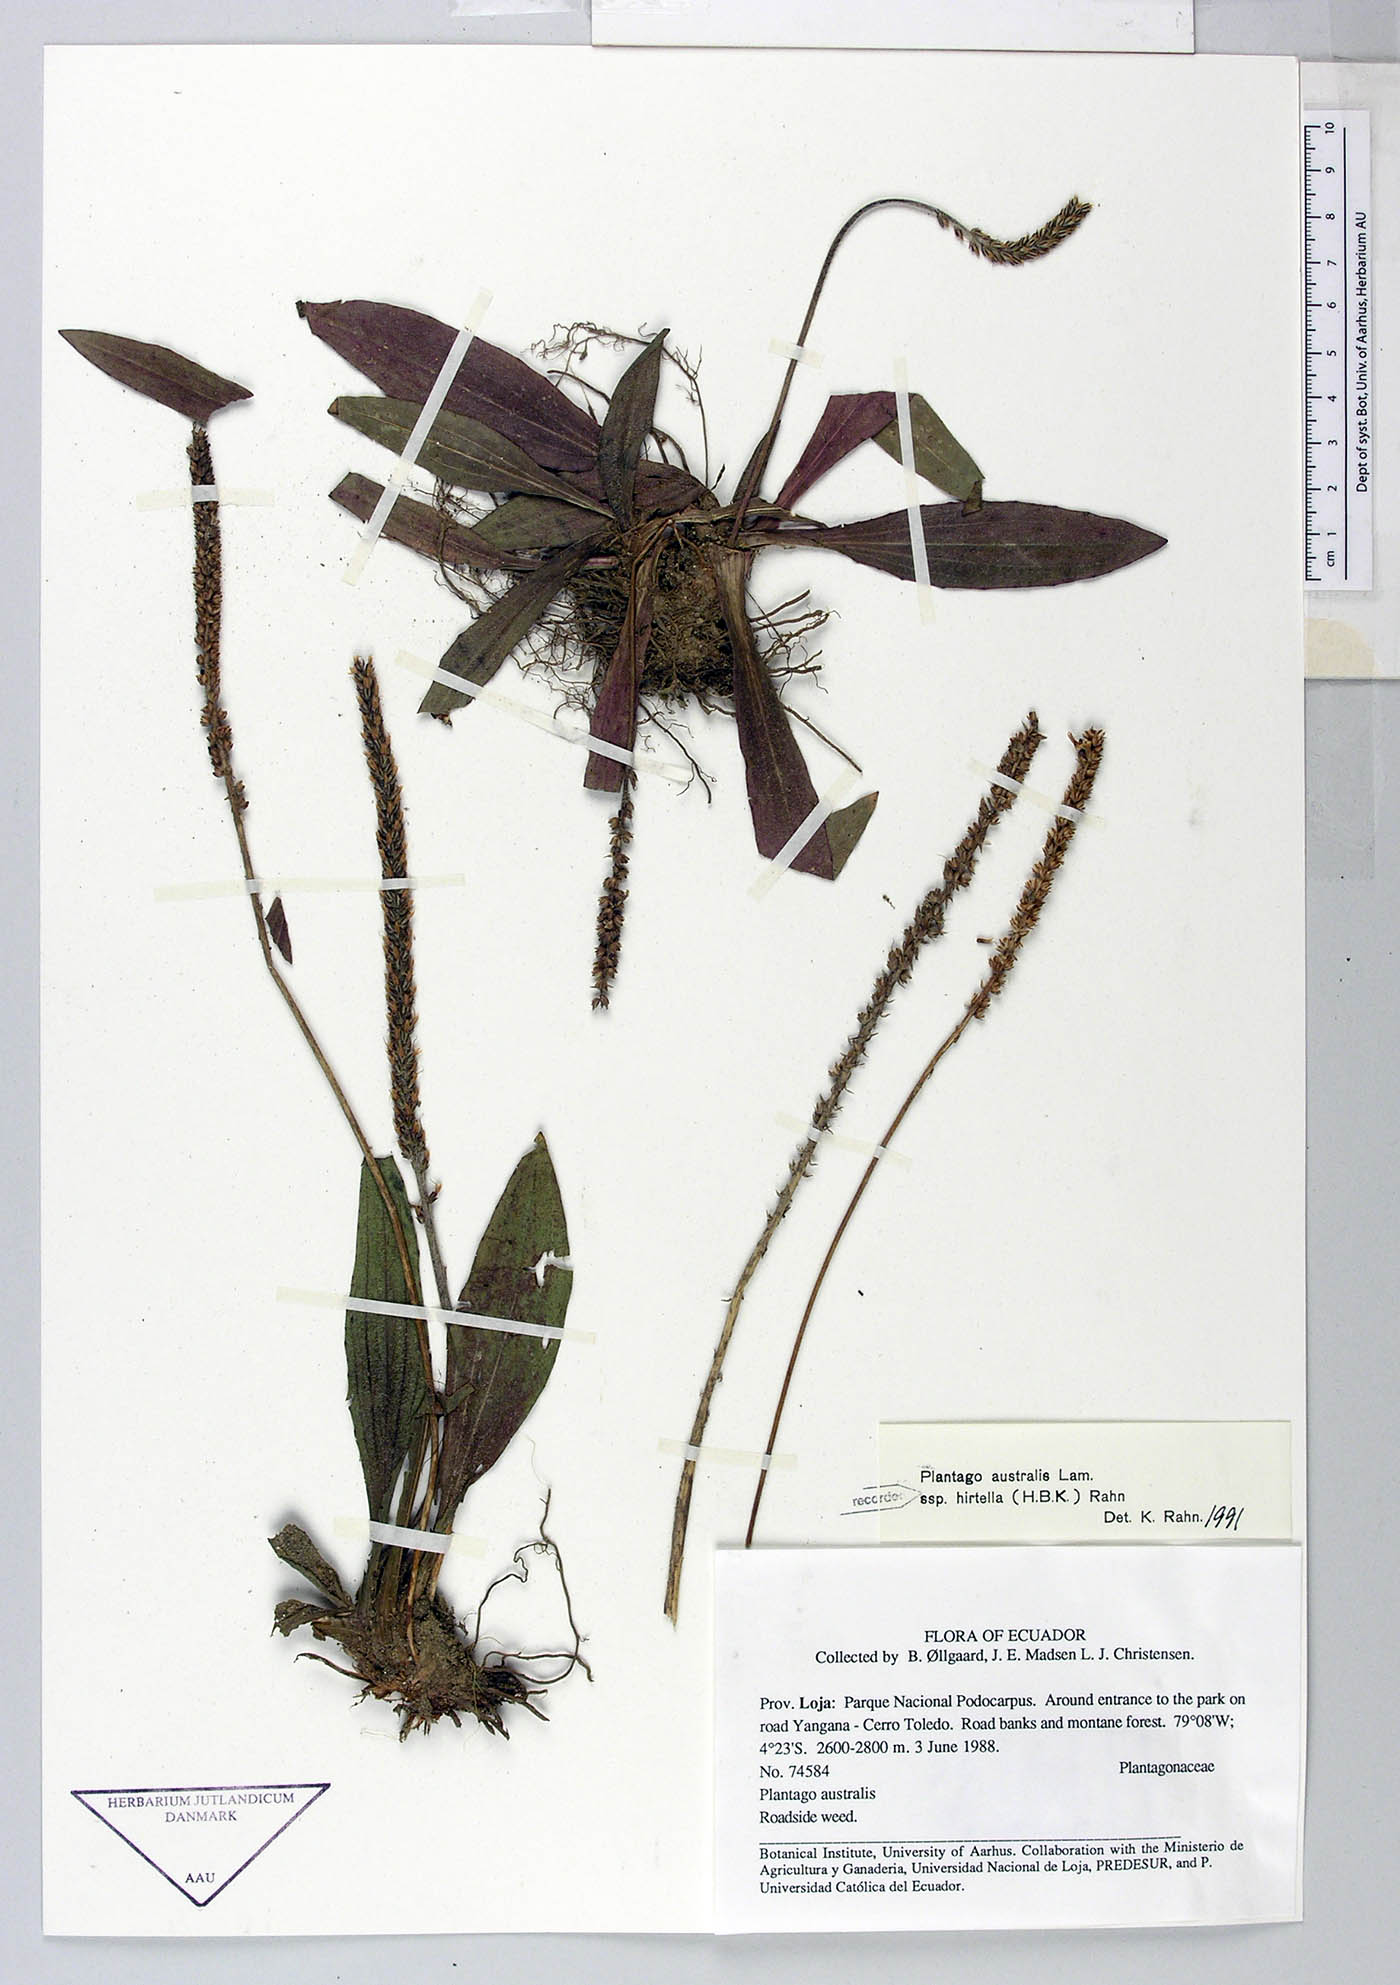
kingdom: Plantae
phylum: Tracheophyta
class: Magnoliopsida
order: Lamiales
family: Plantaginaceae
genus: Plantago
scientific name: Plantago australis
